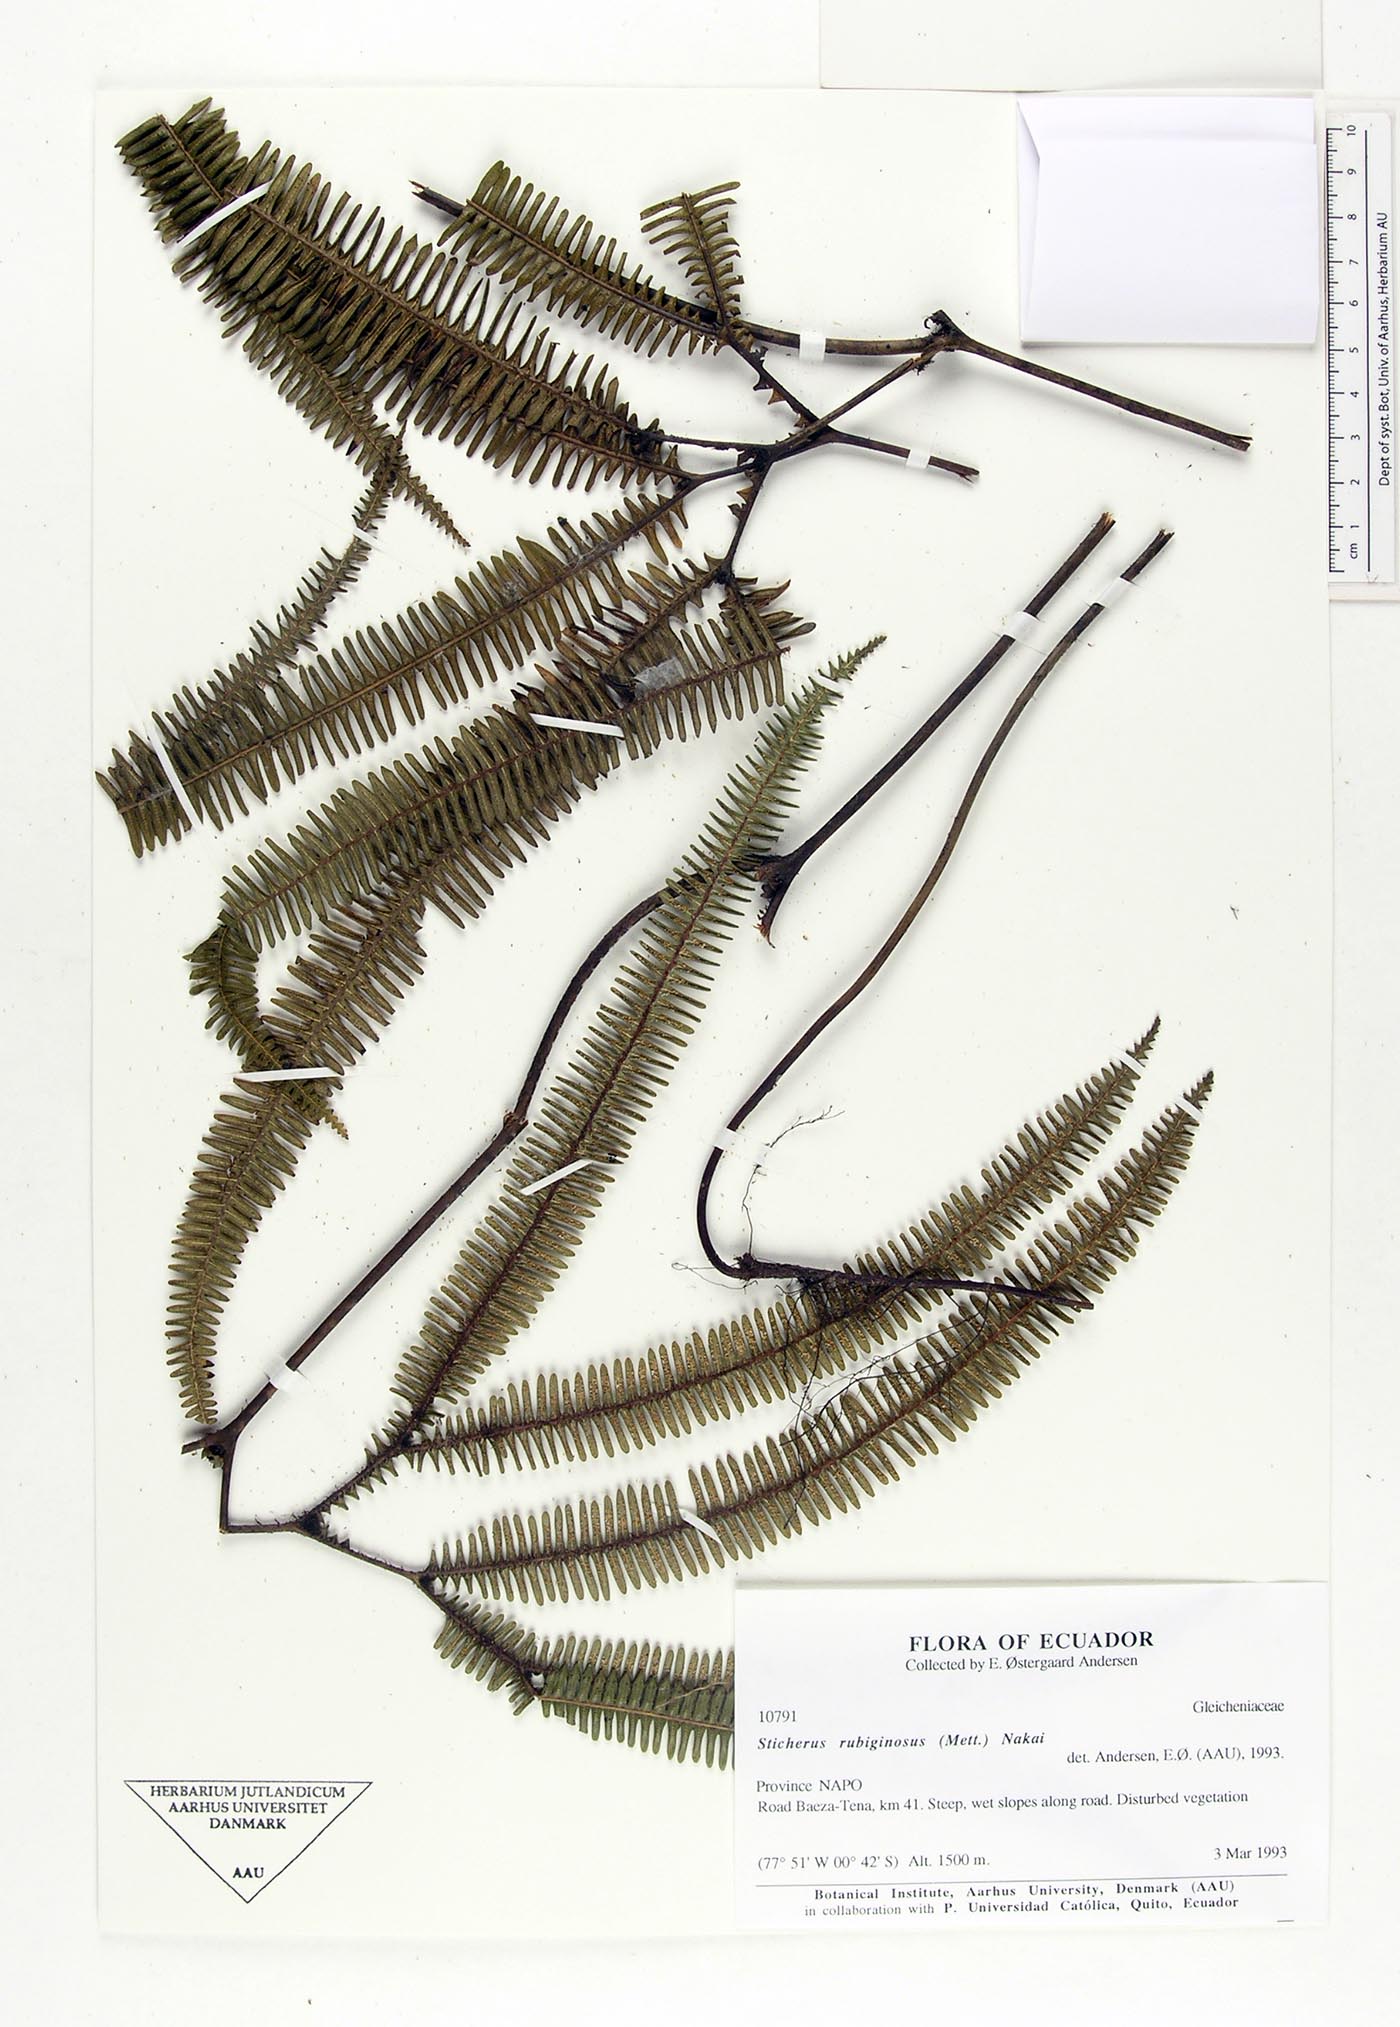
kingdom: Plantae
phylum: Tracheophyta
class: Polypodiopsida
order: Gleicheniales
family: Gleicheniaceae
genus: Sticherus
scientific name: Sticherus rubiginosus
